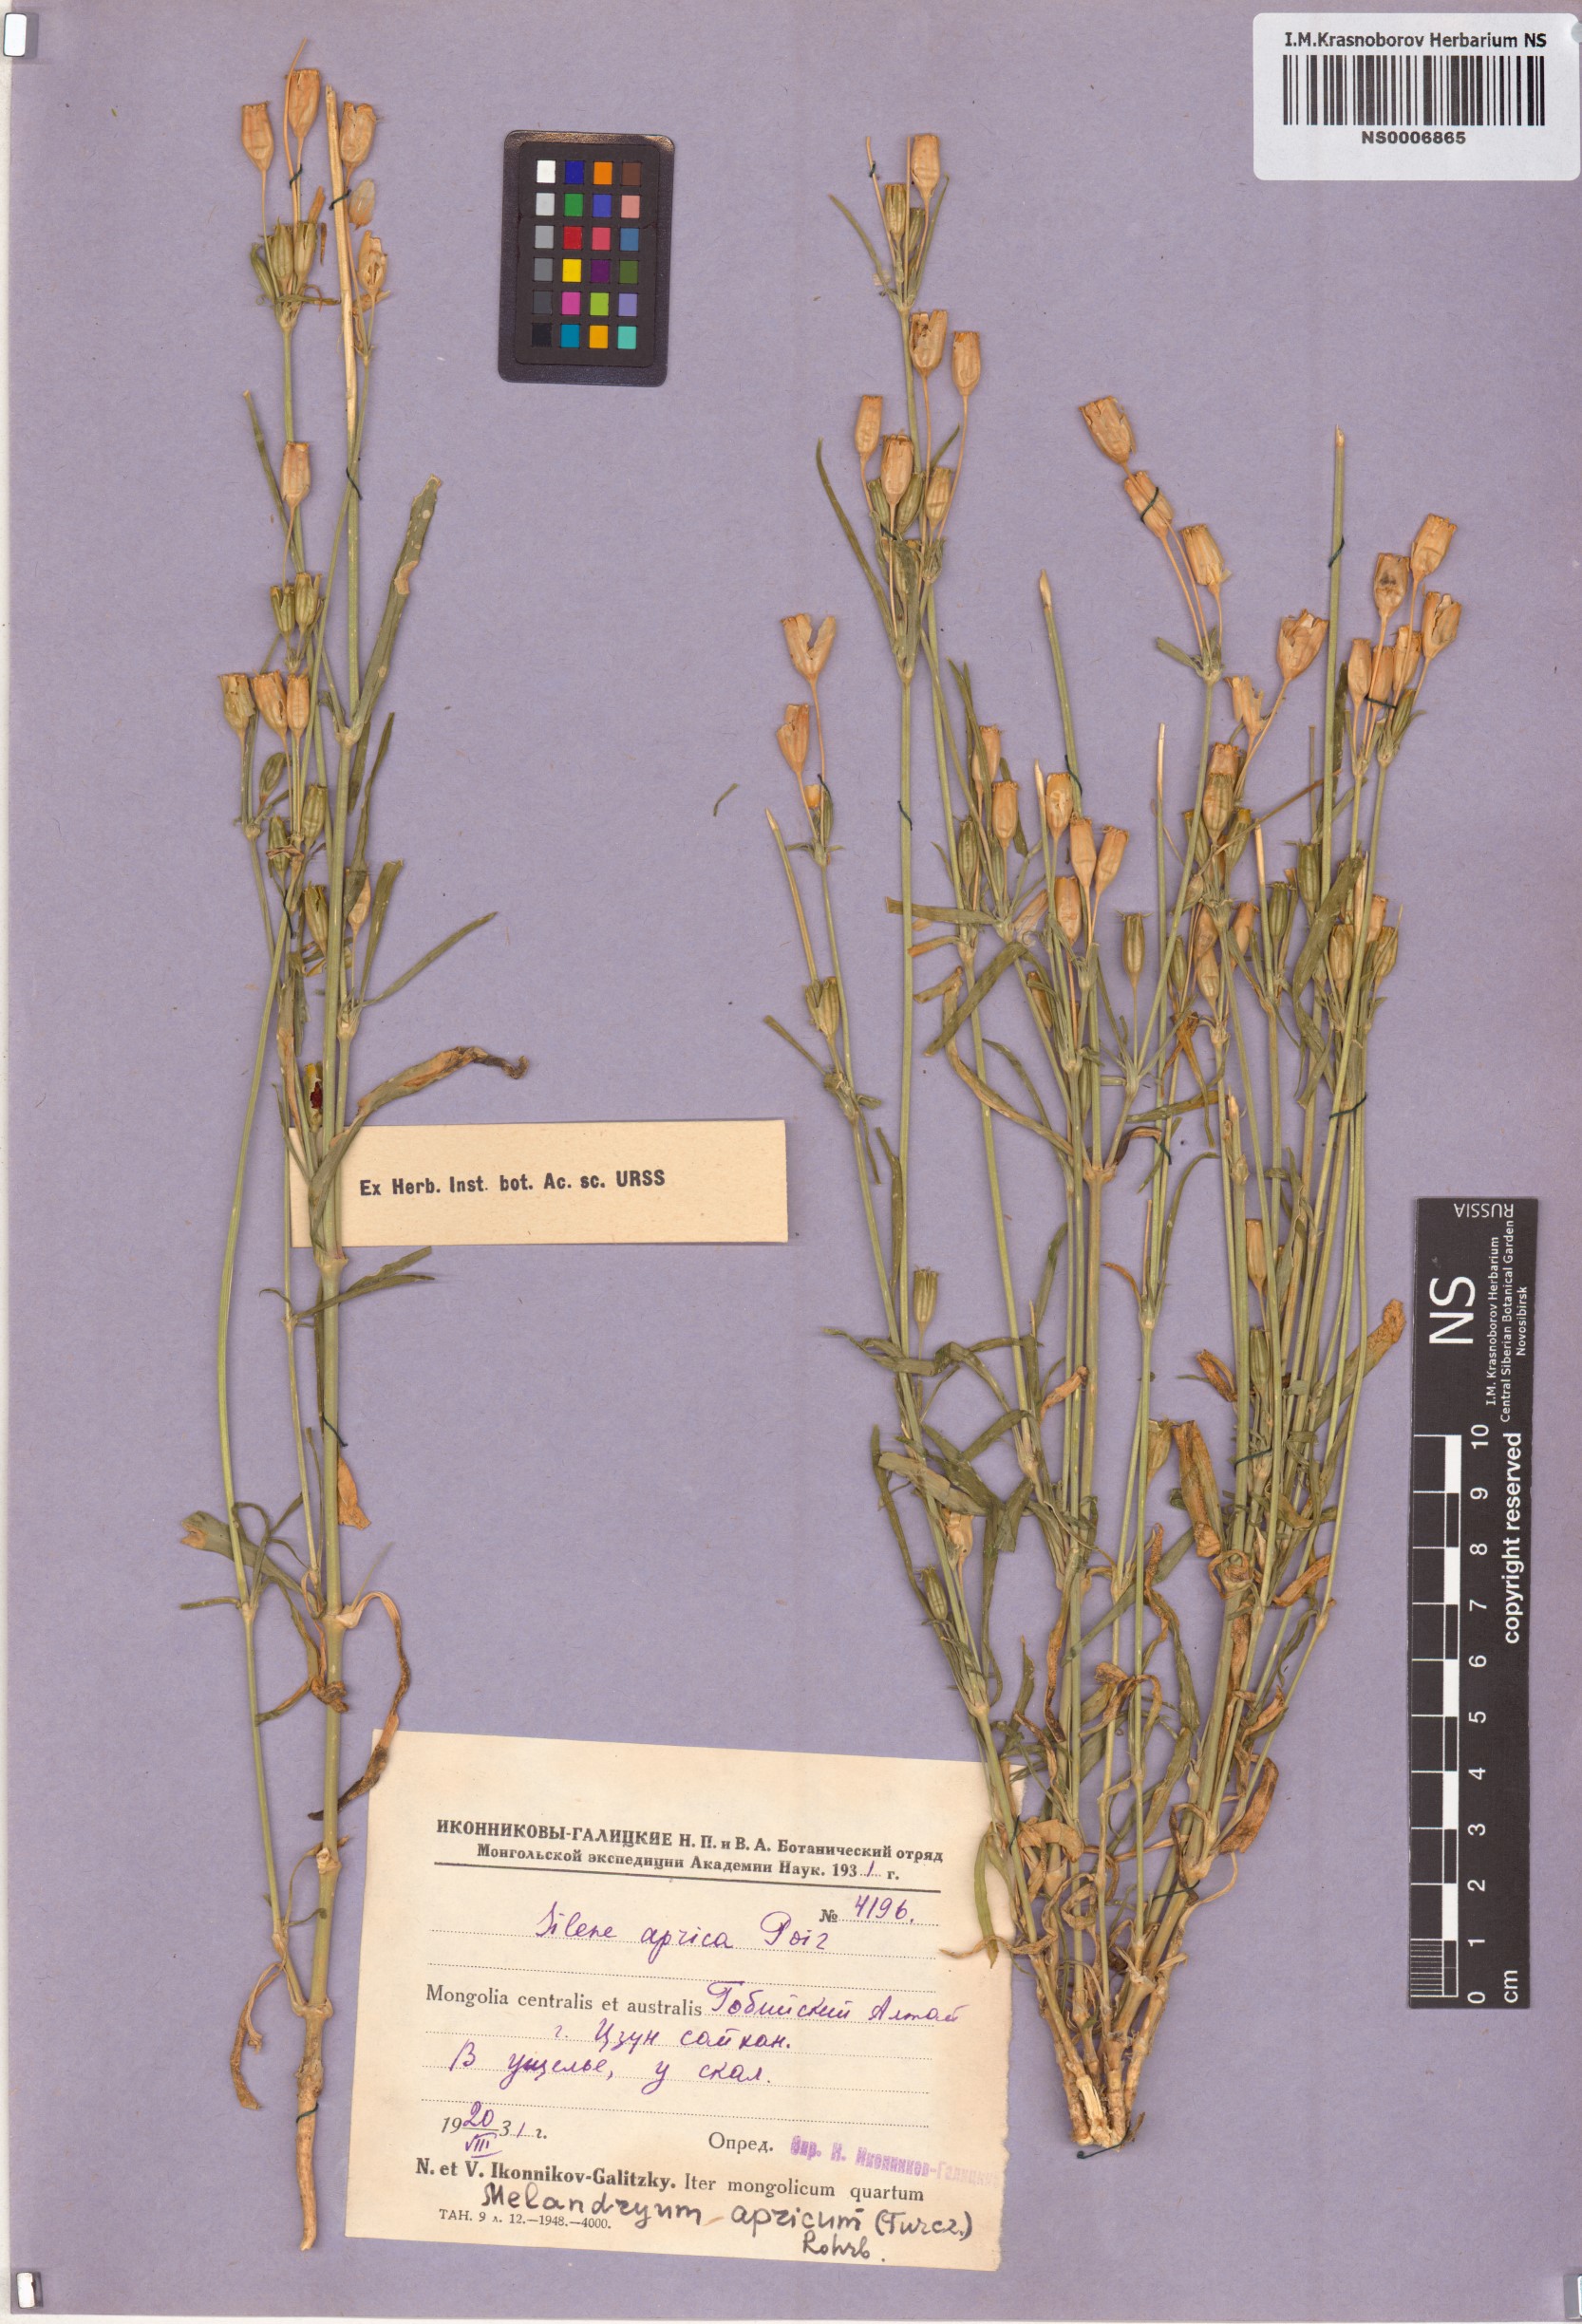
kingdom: Plantae
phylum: Tracheophyta
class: Magnoliopsida
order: Caryophyllales
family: Caryophyllaceae
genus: Silene
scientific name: Silene aprica
